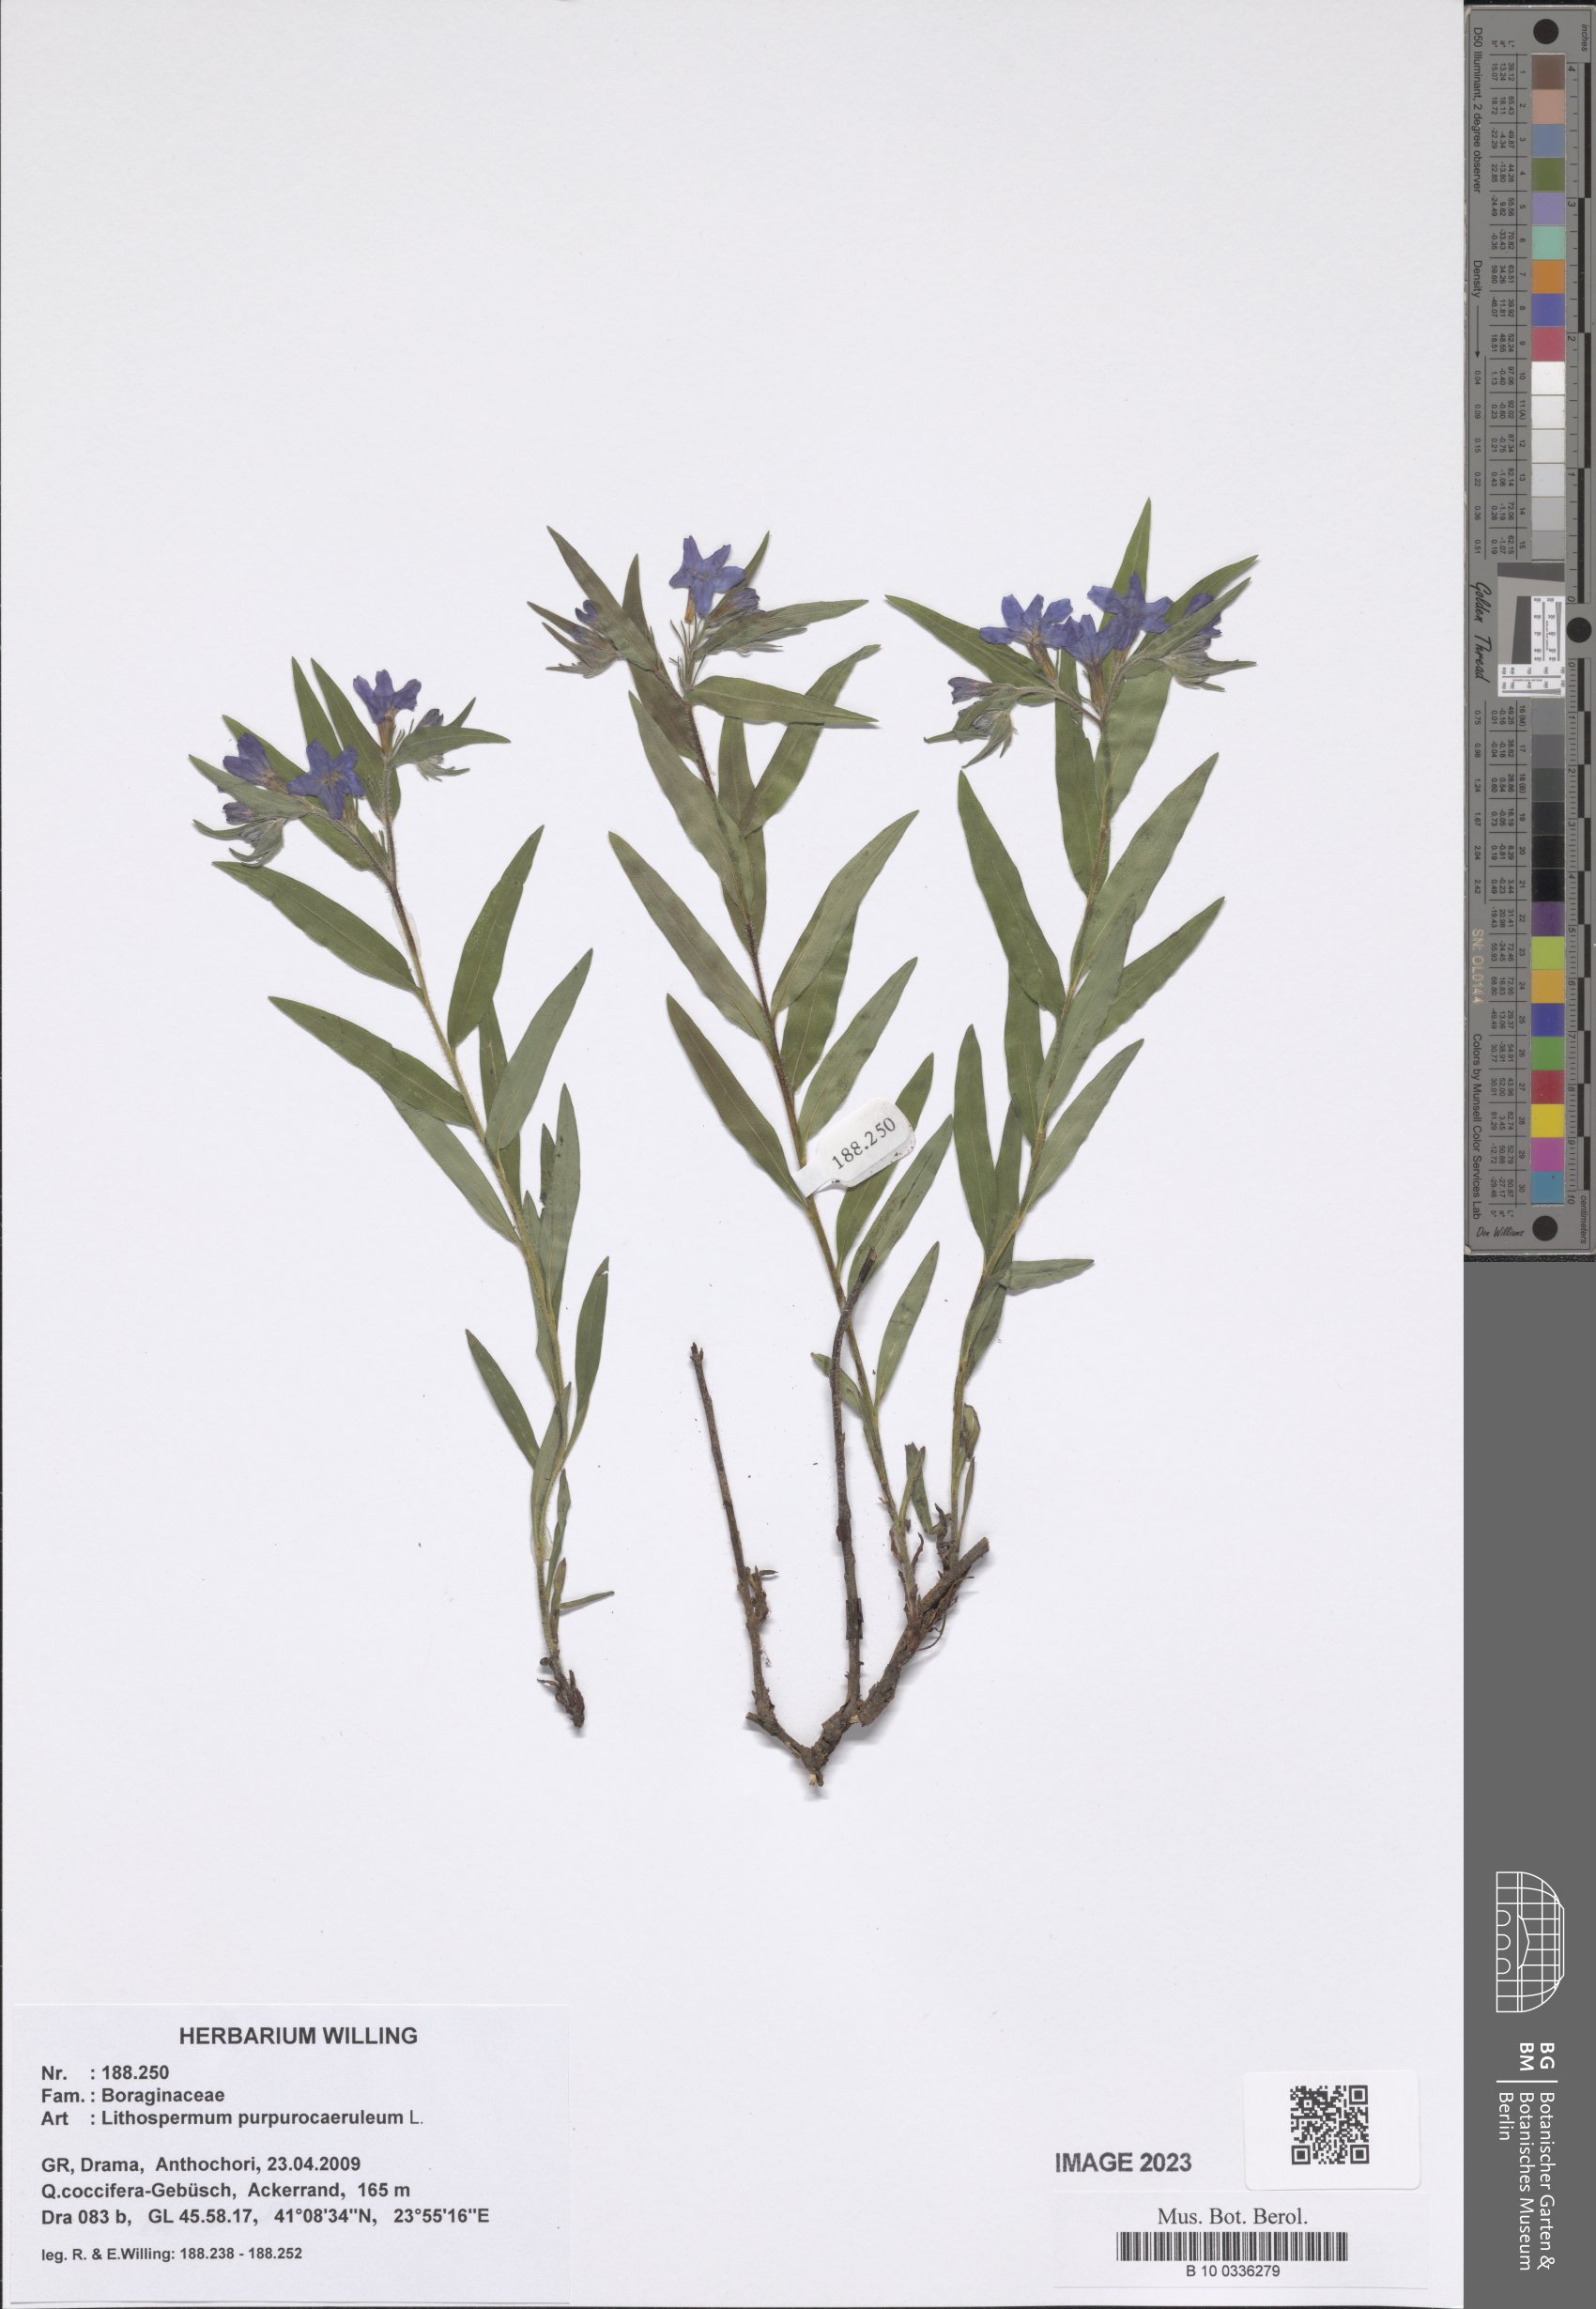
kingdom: Plantae
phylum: Tracheophyta
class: Magnoliopsida
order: Boraginales
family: Boraginaceae
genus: Aegonychon
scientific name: Aegonychon purpurocaeruleum
